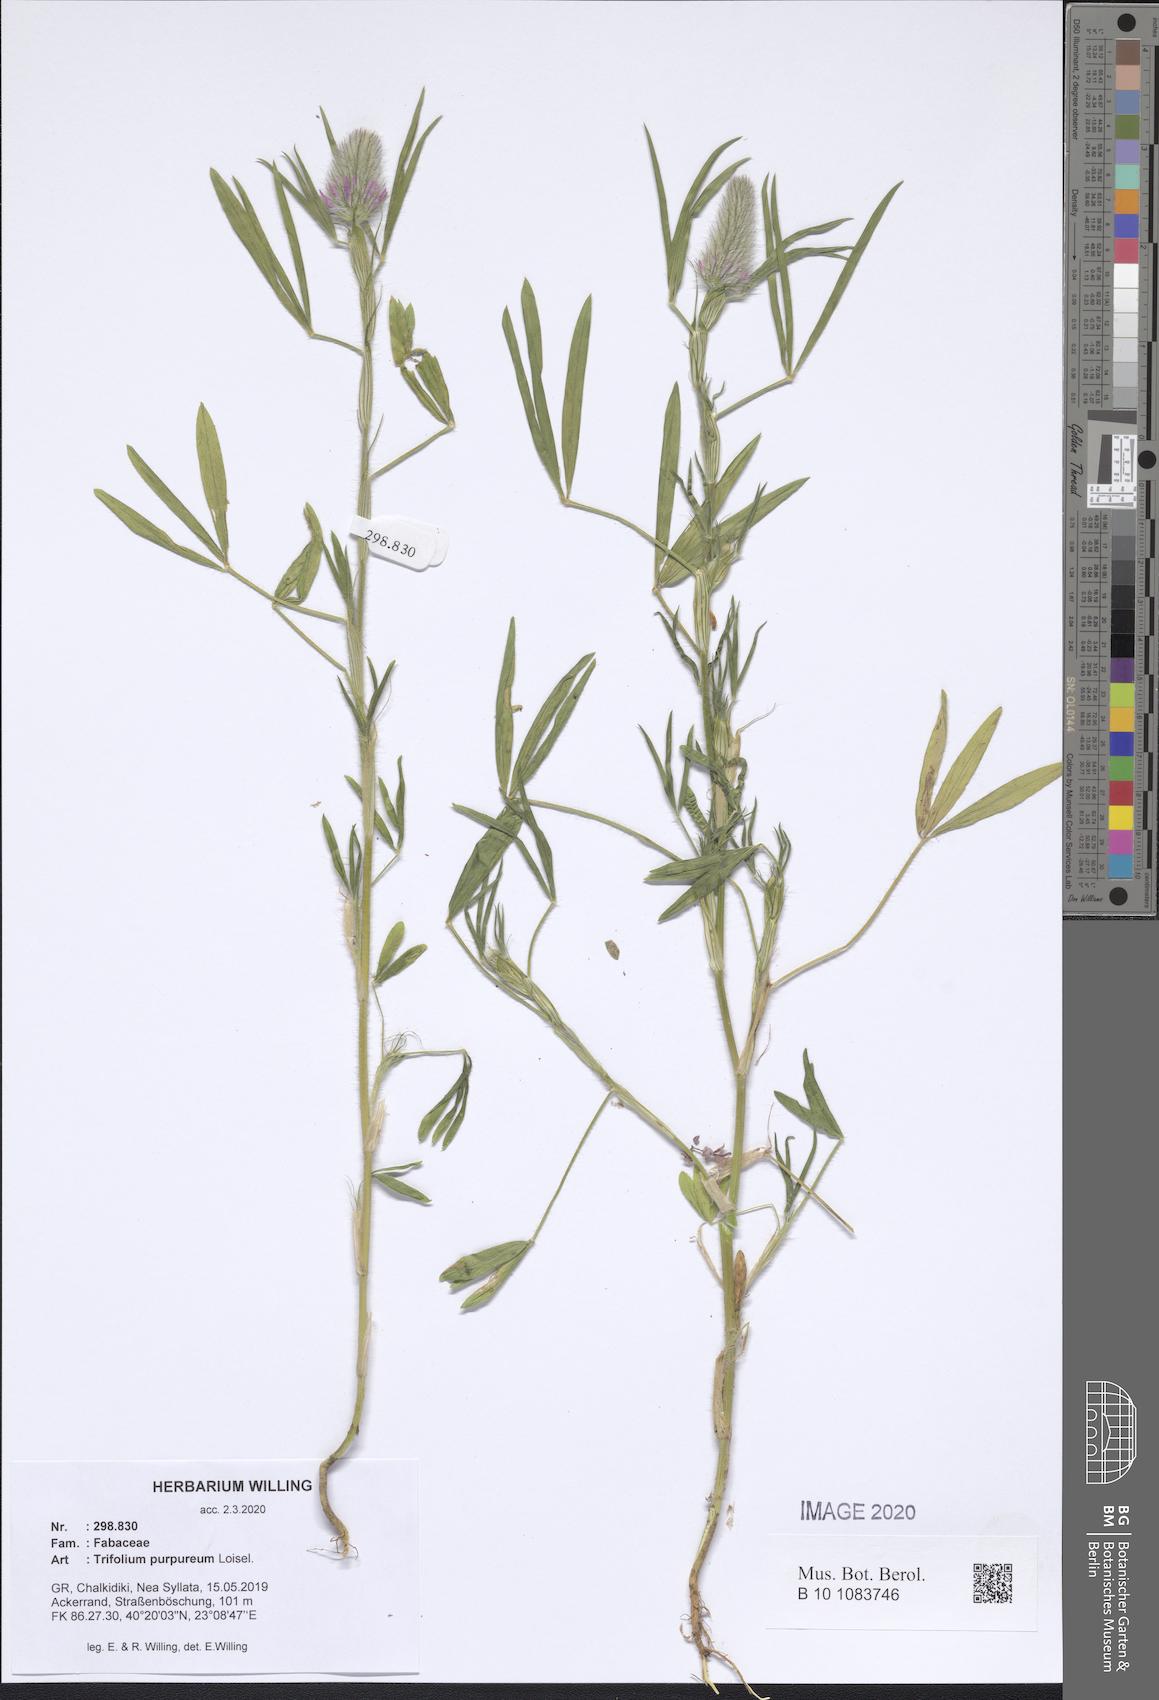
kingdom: Plantae
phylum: Tracheophyta
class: Magnoliopsida
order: Fabales
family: Fabaceae
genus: Trifolium
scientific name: Trifolium purpureum
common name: Purple clover
